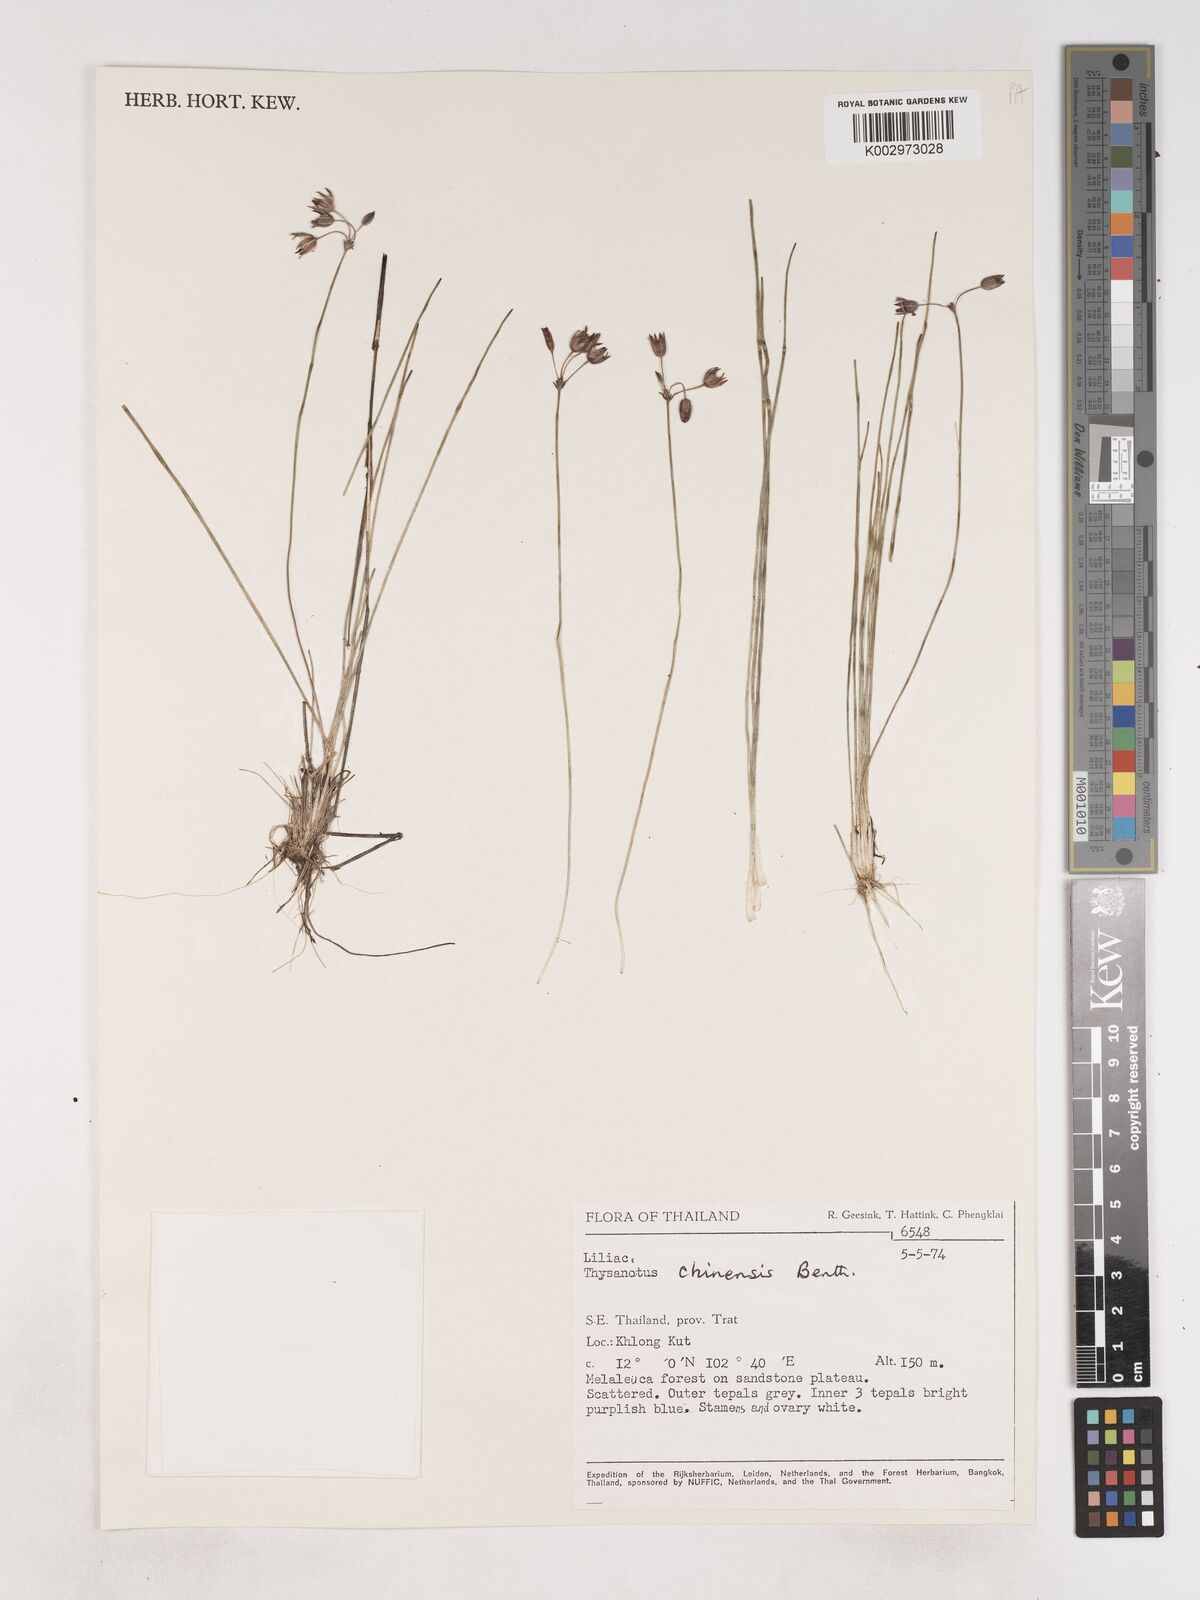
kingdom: Plantae
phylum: Tracheophyta
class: Liliopsida
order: Asparagales
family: Asparagaceae
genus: Thysanotus
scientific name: Thysanotus chinensis
